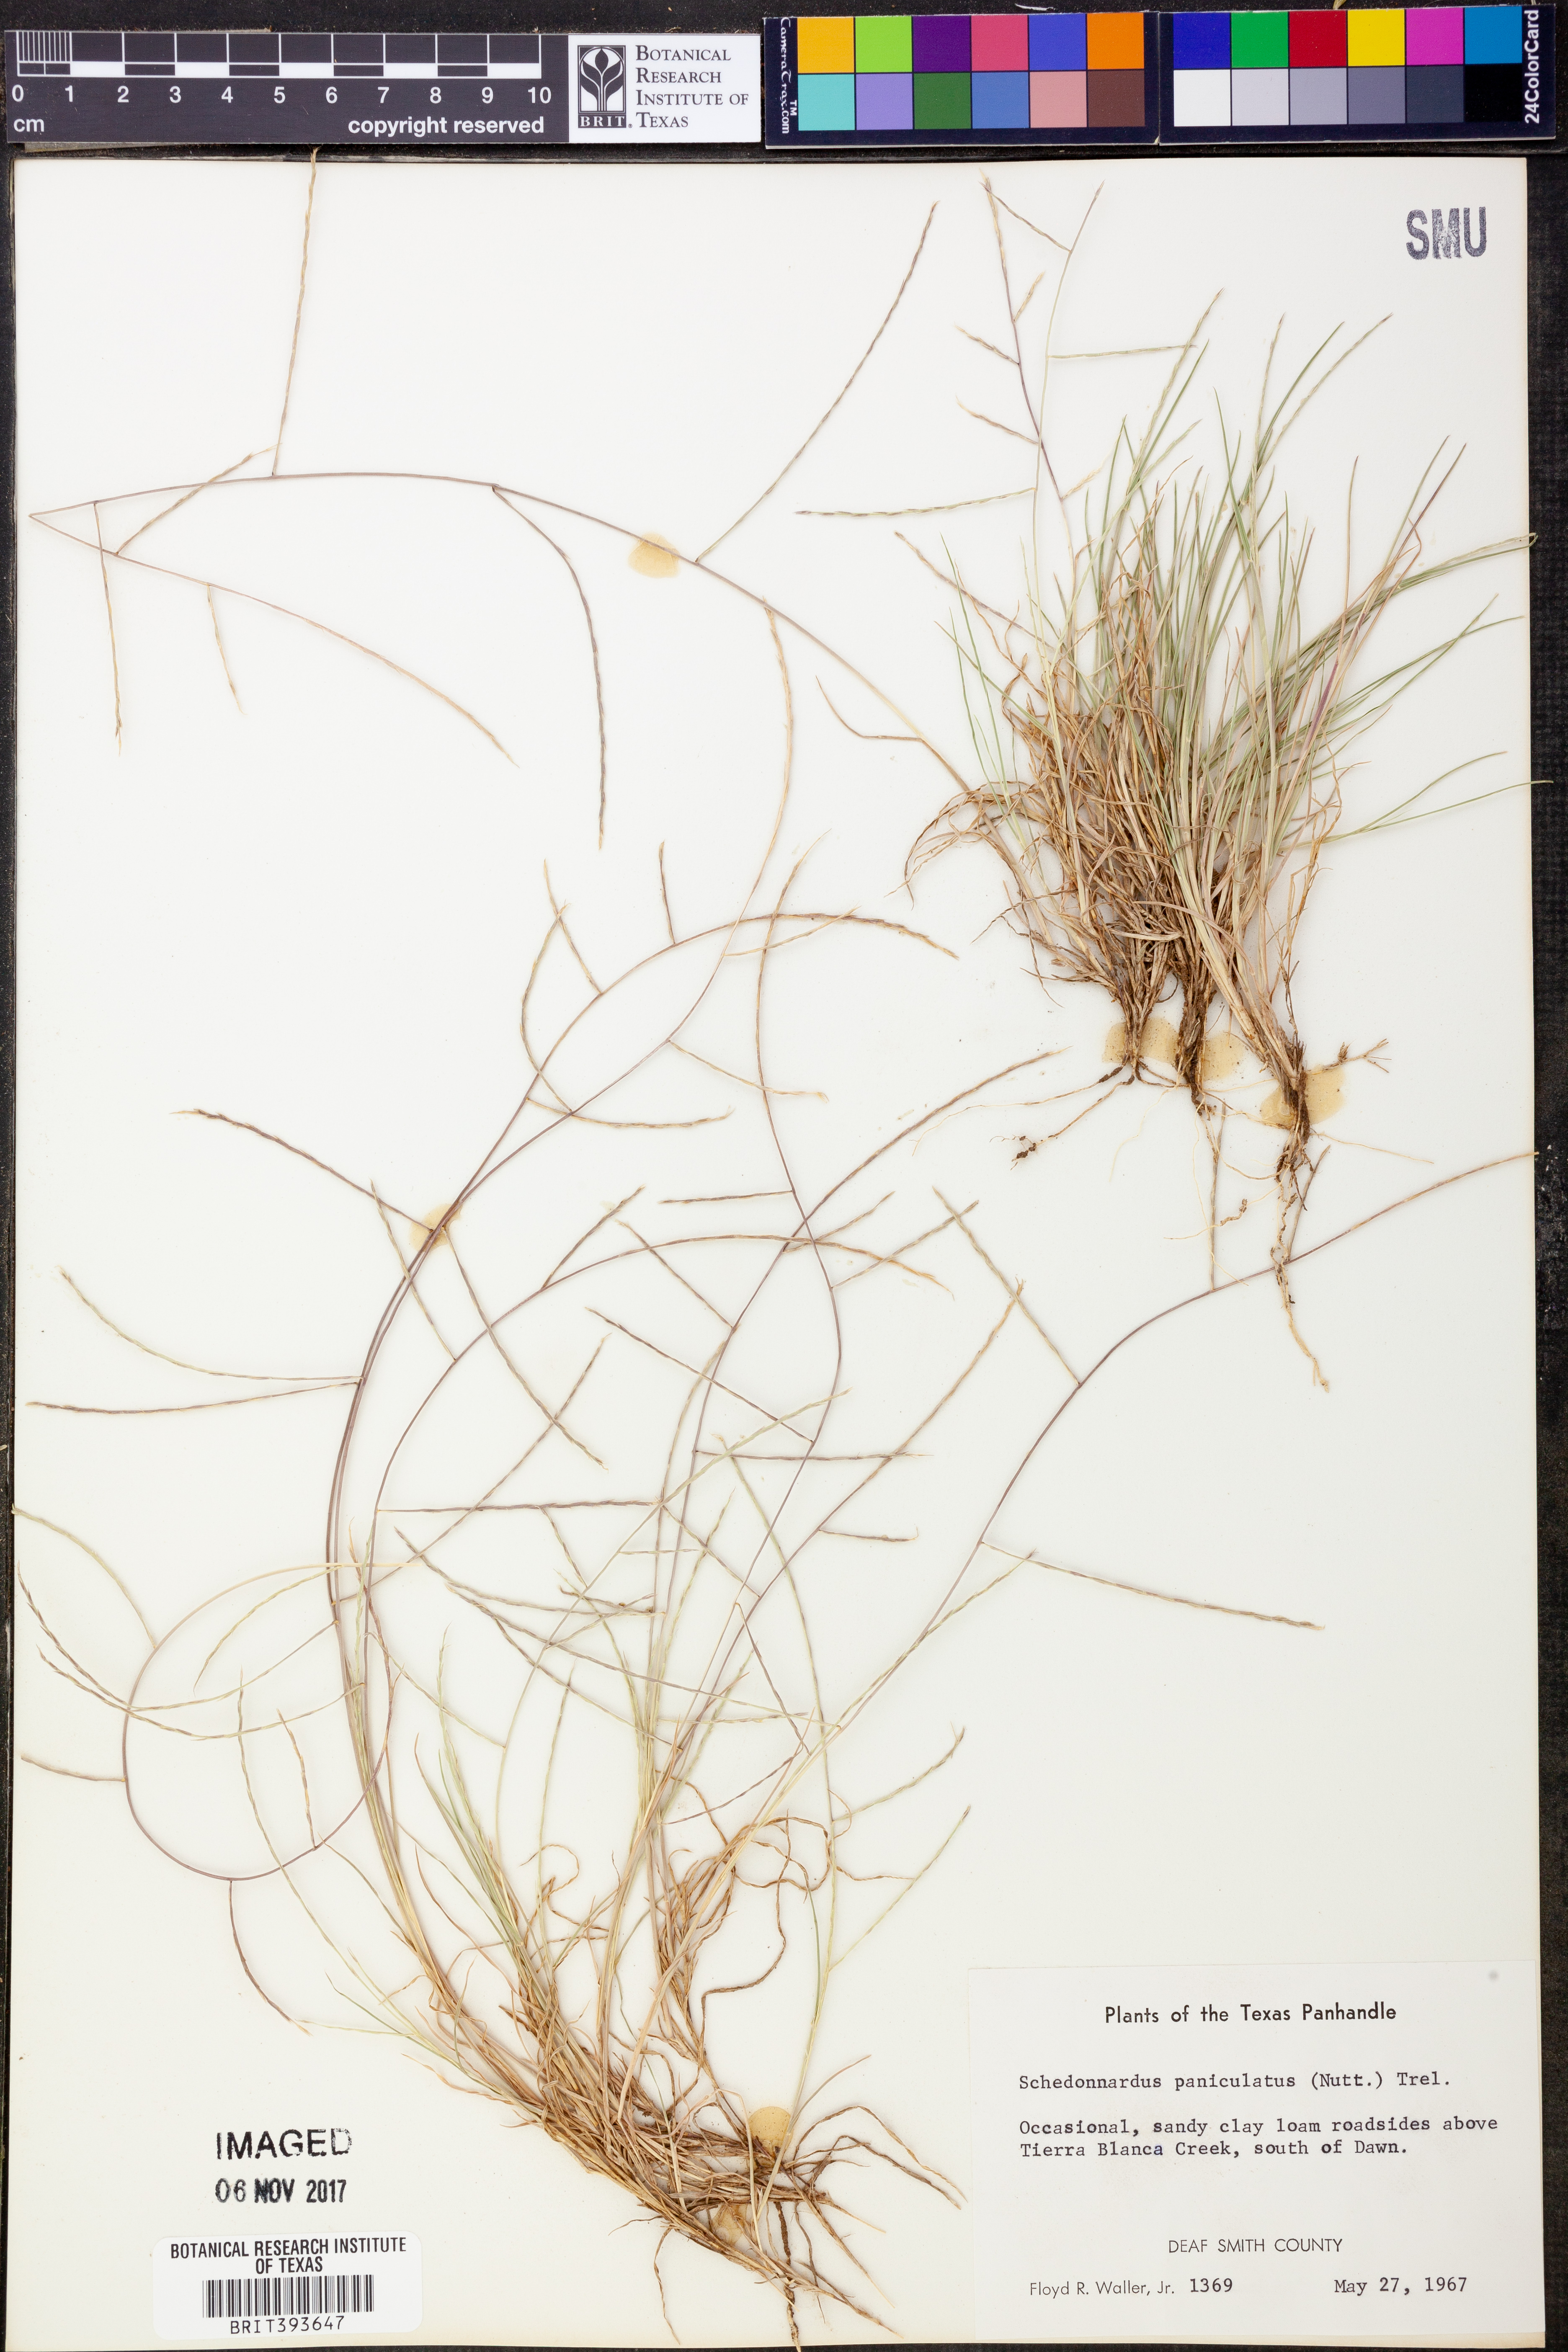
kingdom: Plantae
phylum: Tracheophyta
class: Liliopsida
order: Poales
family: Poaceae
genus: Muhlenbergia
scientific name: Muhlenbergia paniculata
